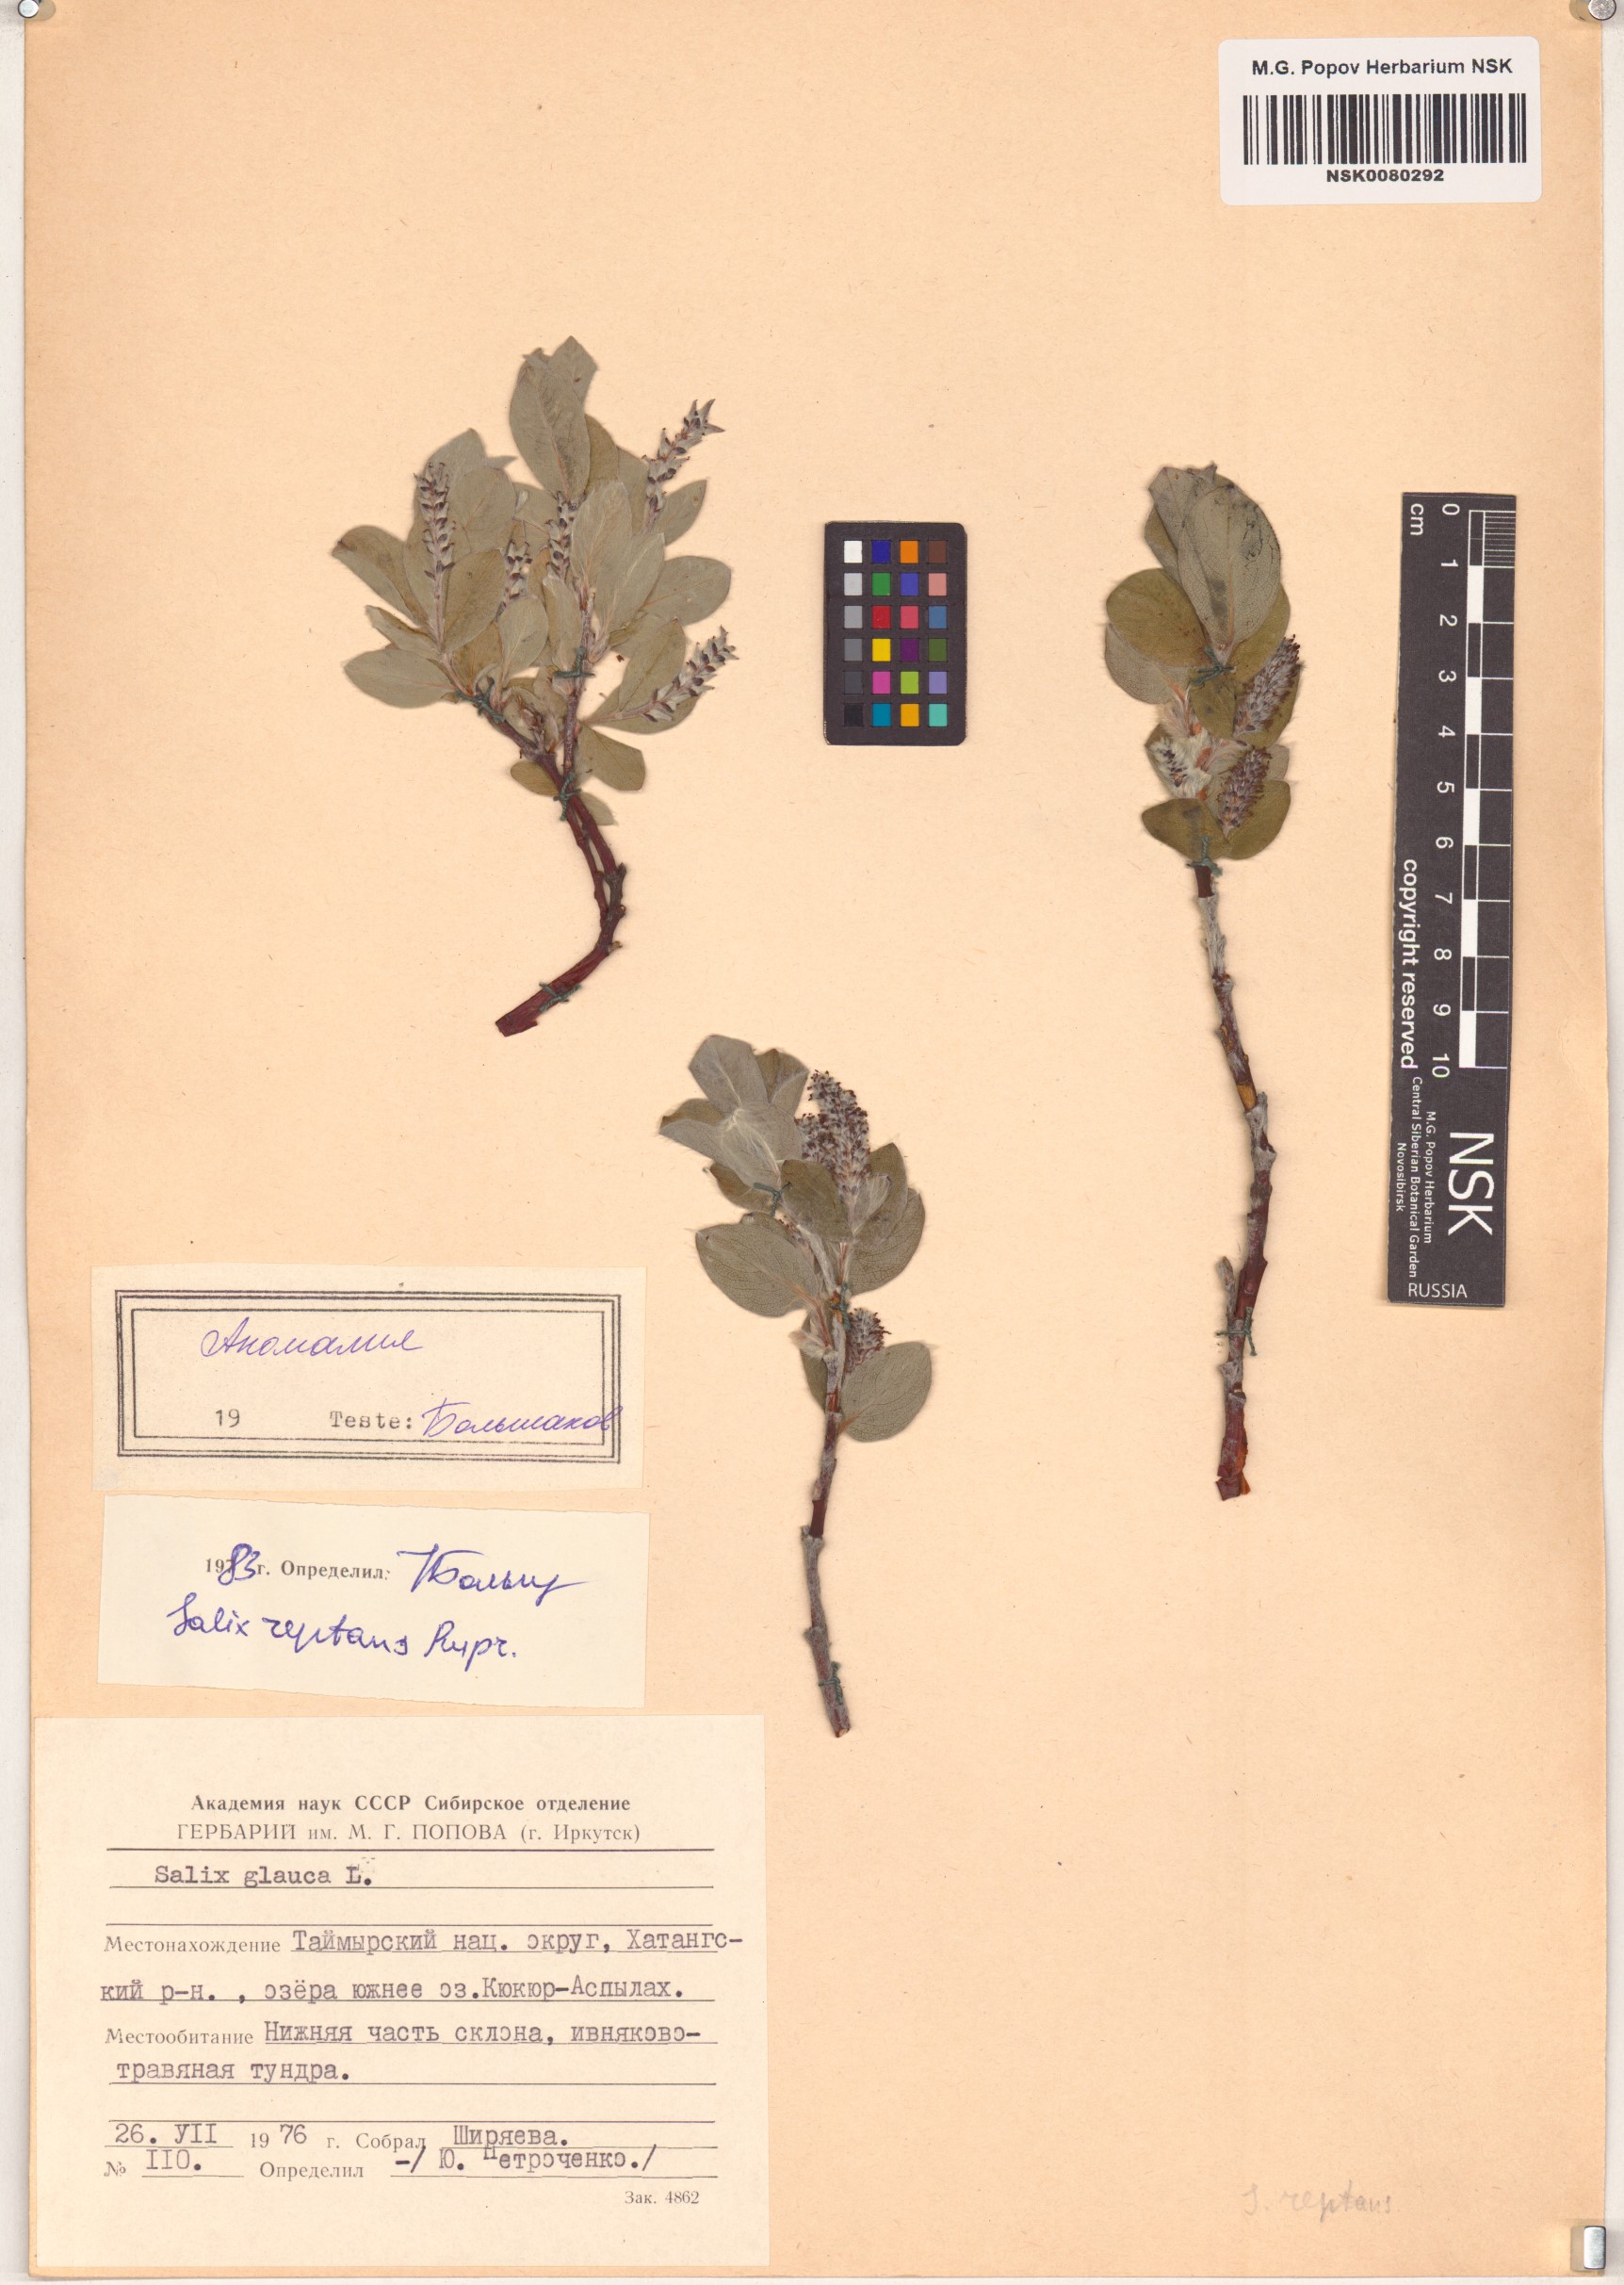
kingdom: Plantae
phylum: Tracheophyta
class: Magnoliopsida
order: Malpighiales
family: Salicaceae
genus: Salix
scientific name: Salix reptans
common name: Arctic creeping willow
